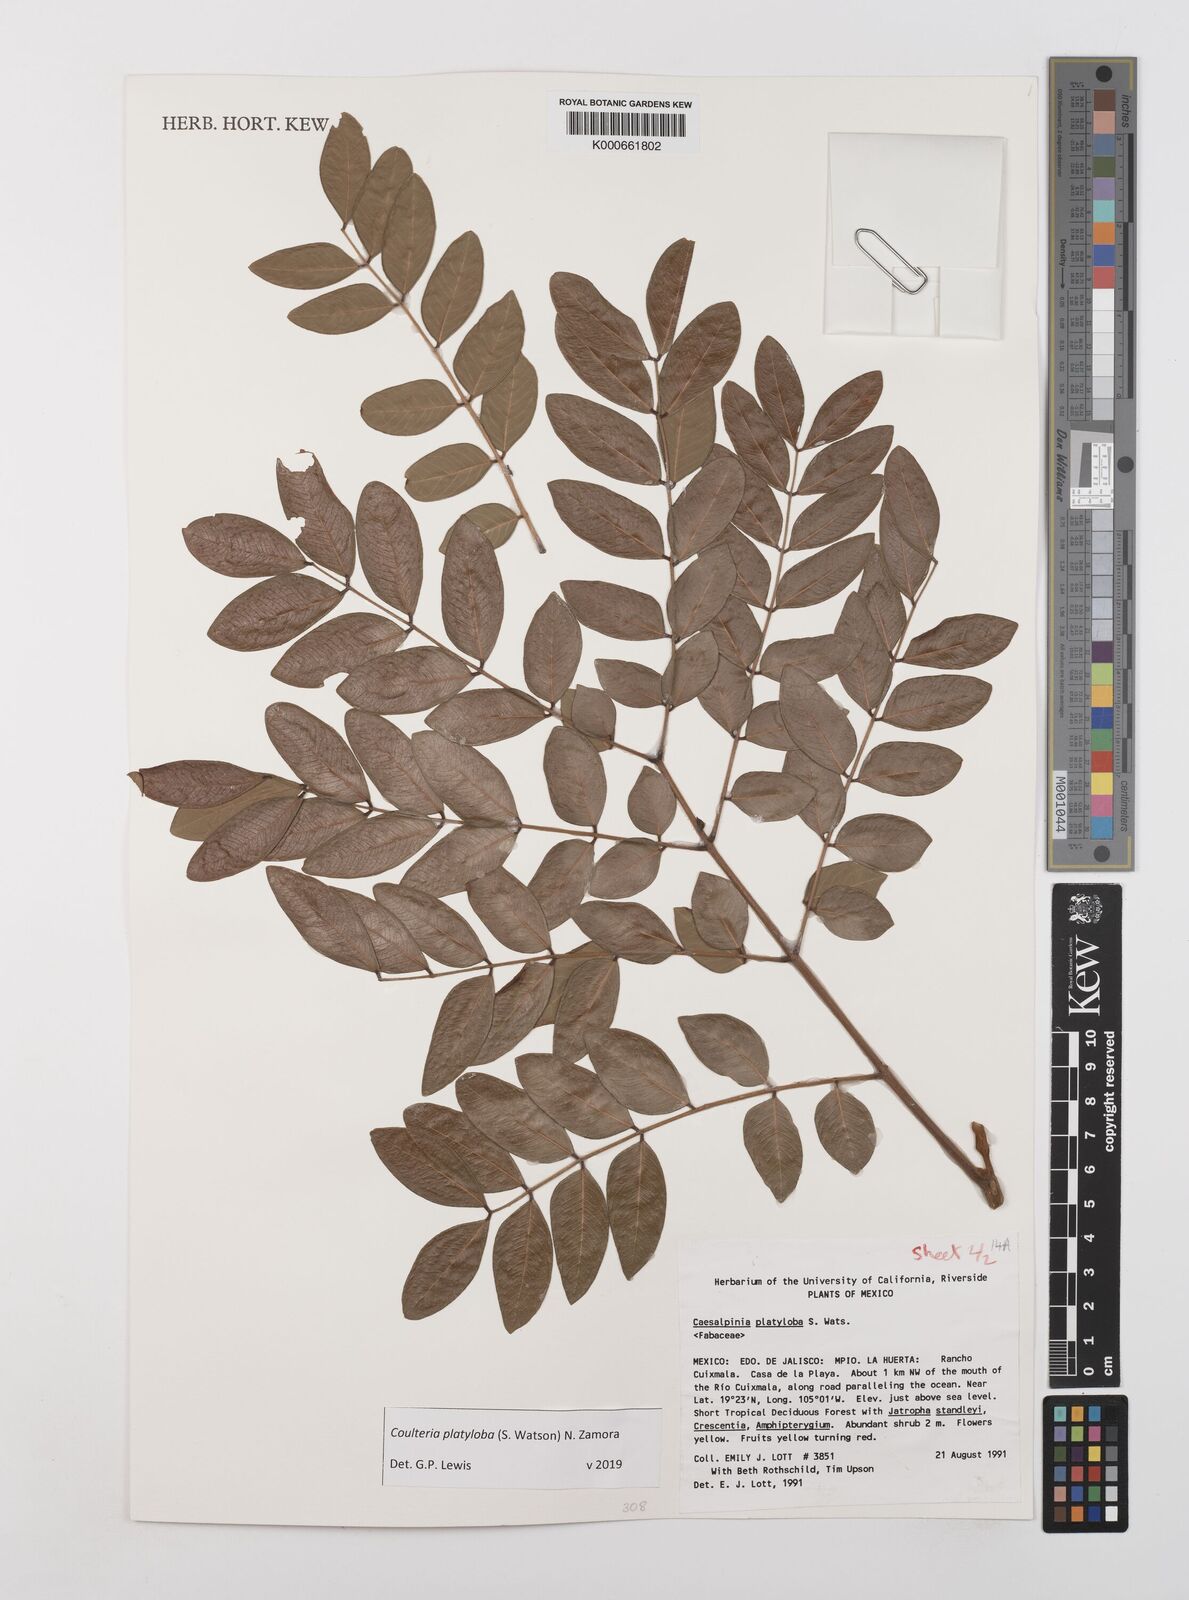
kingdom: Plantae
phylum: Tracheophyta
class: Magnoliopsida
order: Fabales
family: Fabaceae
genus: Coulteria
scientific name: Coulteria platyloba
